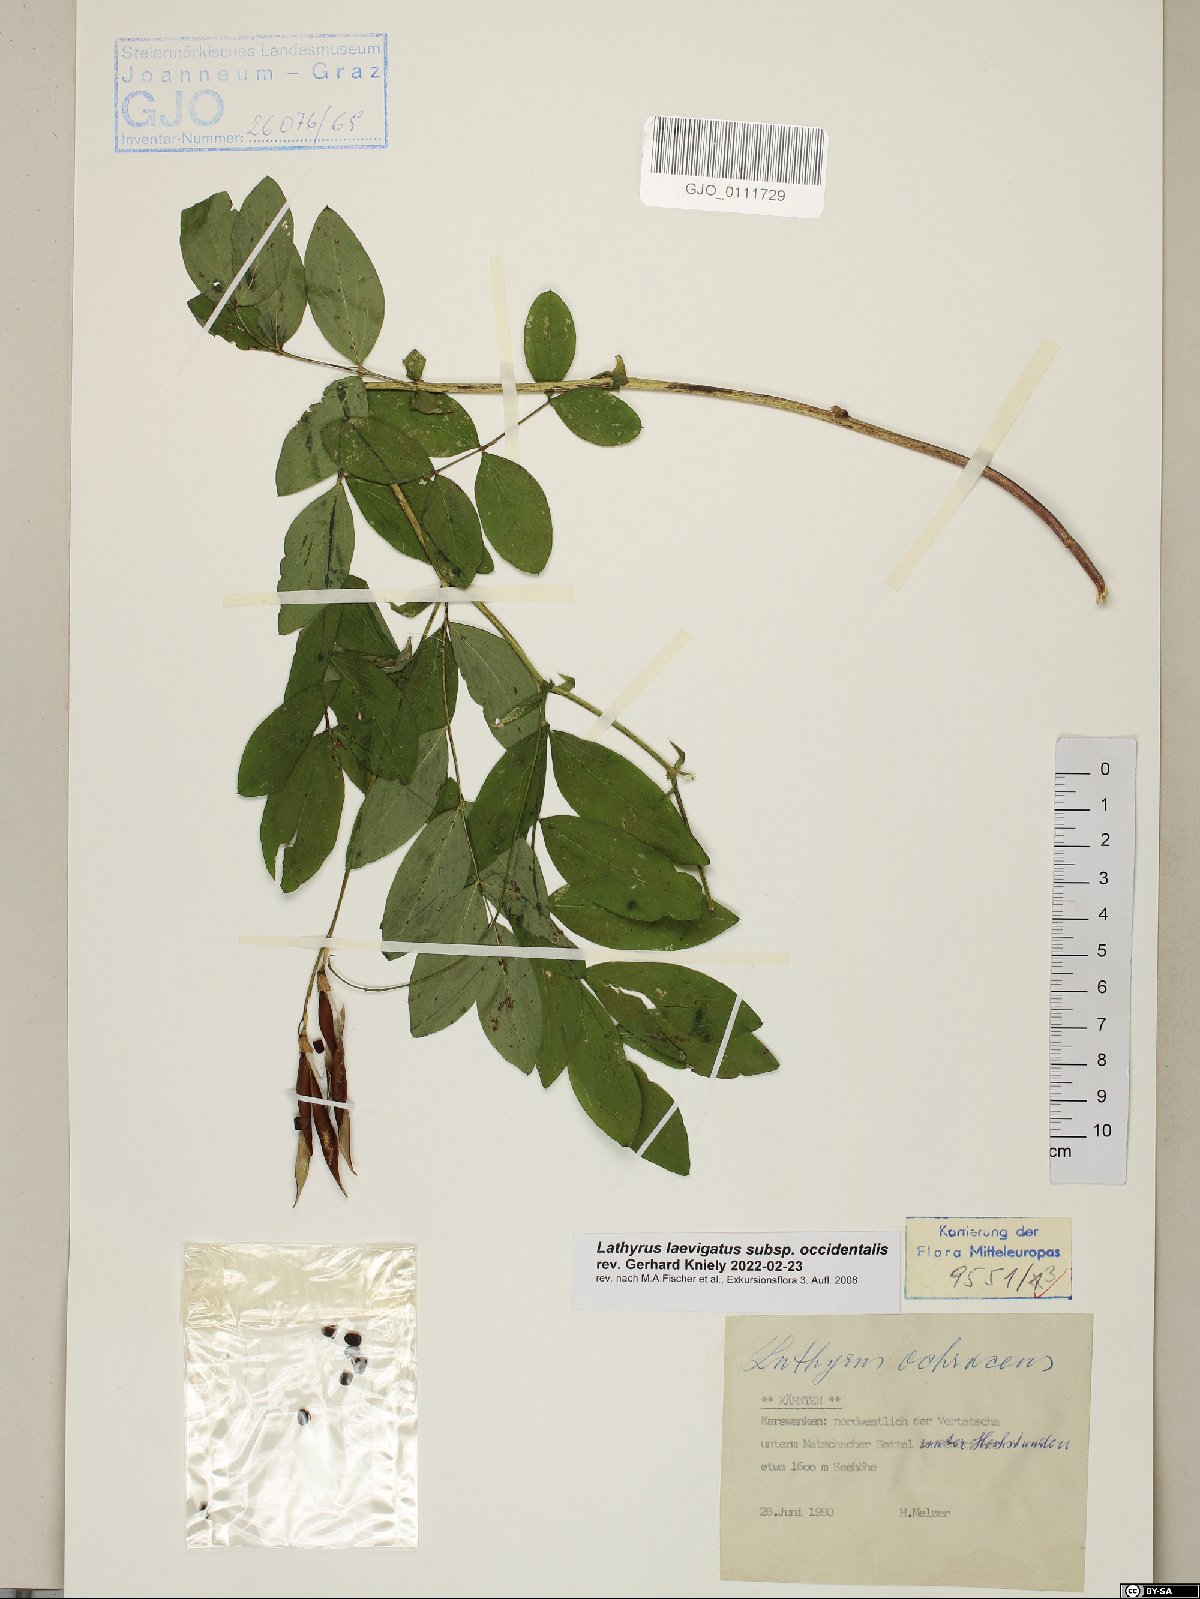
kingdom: Plantae
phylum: Tracheophyta
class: Magnoliopsida
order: Fabales
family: Fabaceae
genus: Lathyrus
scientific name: Lathyrus laevigatus
